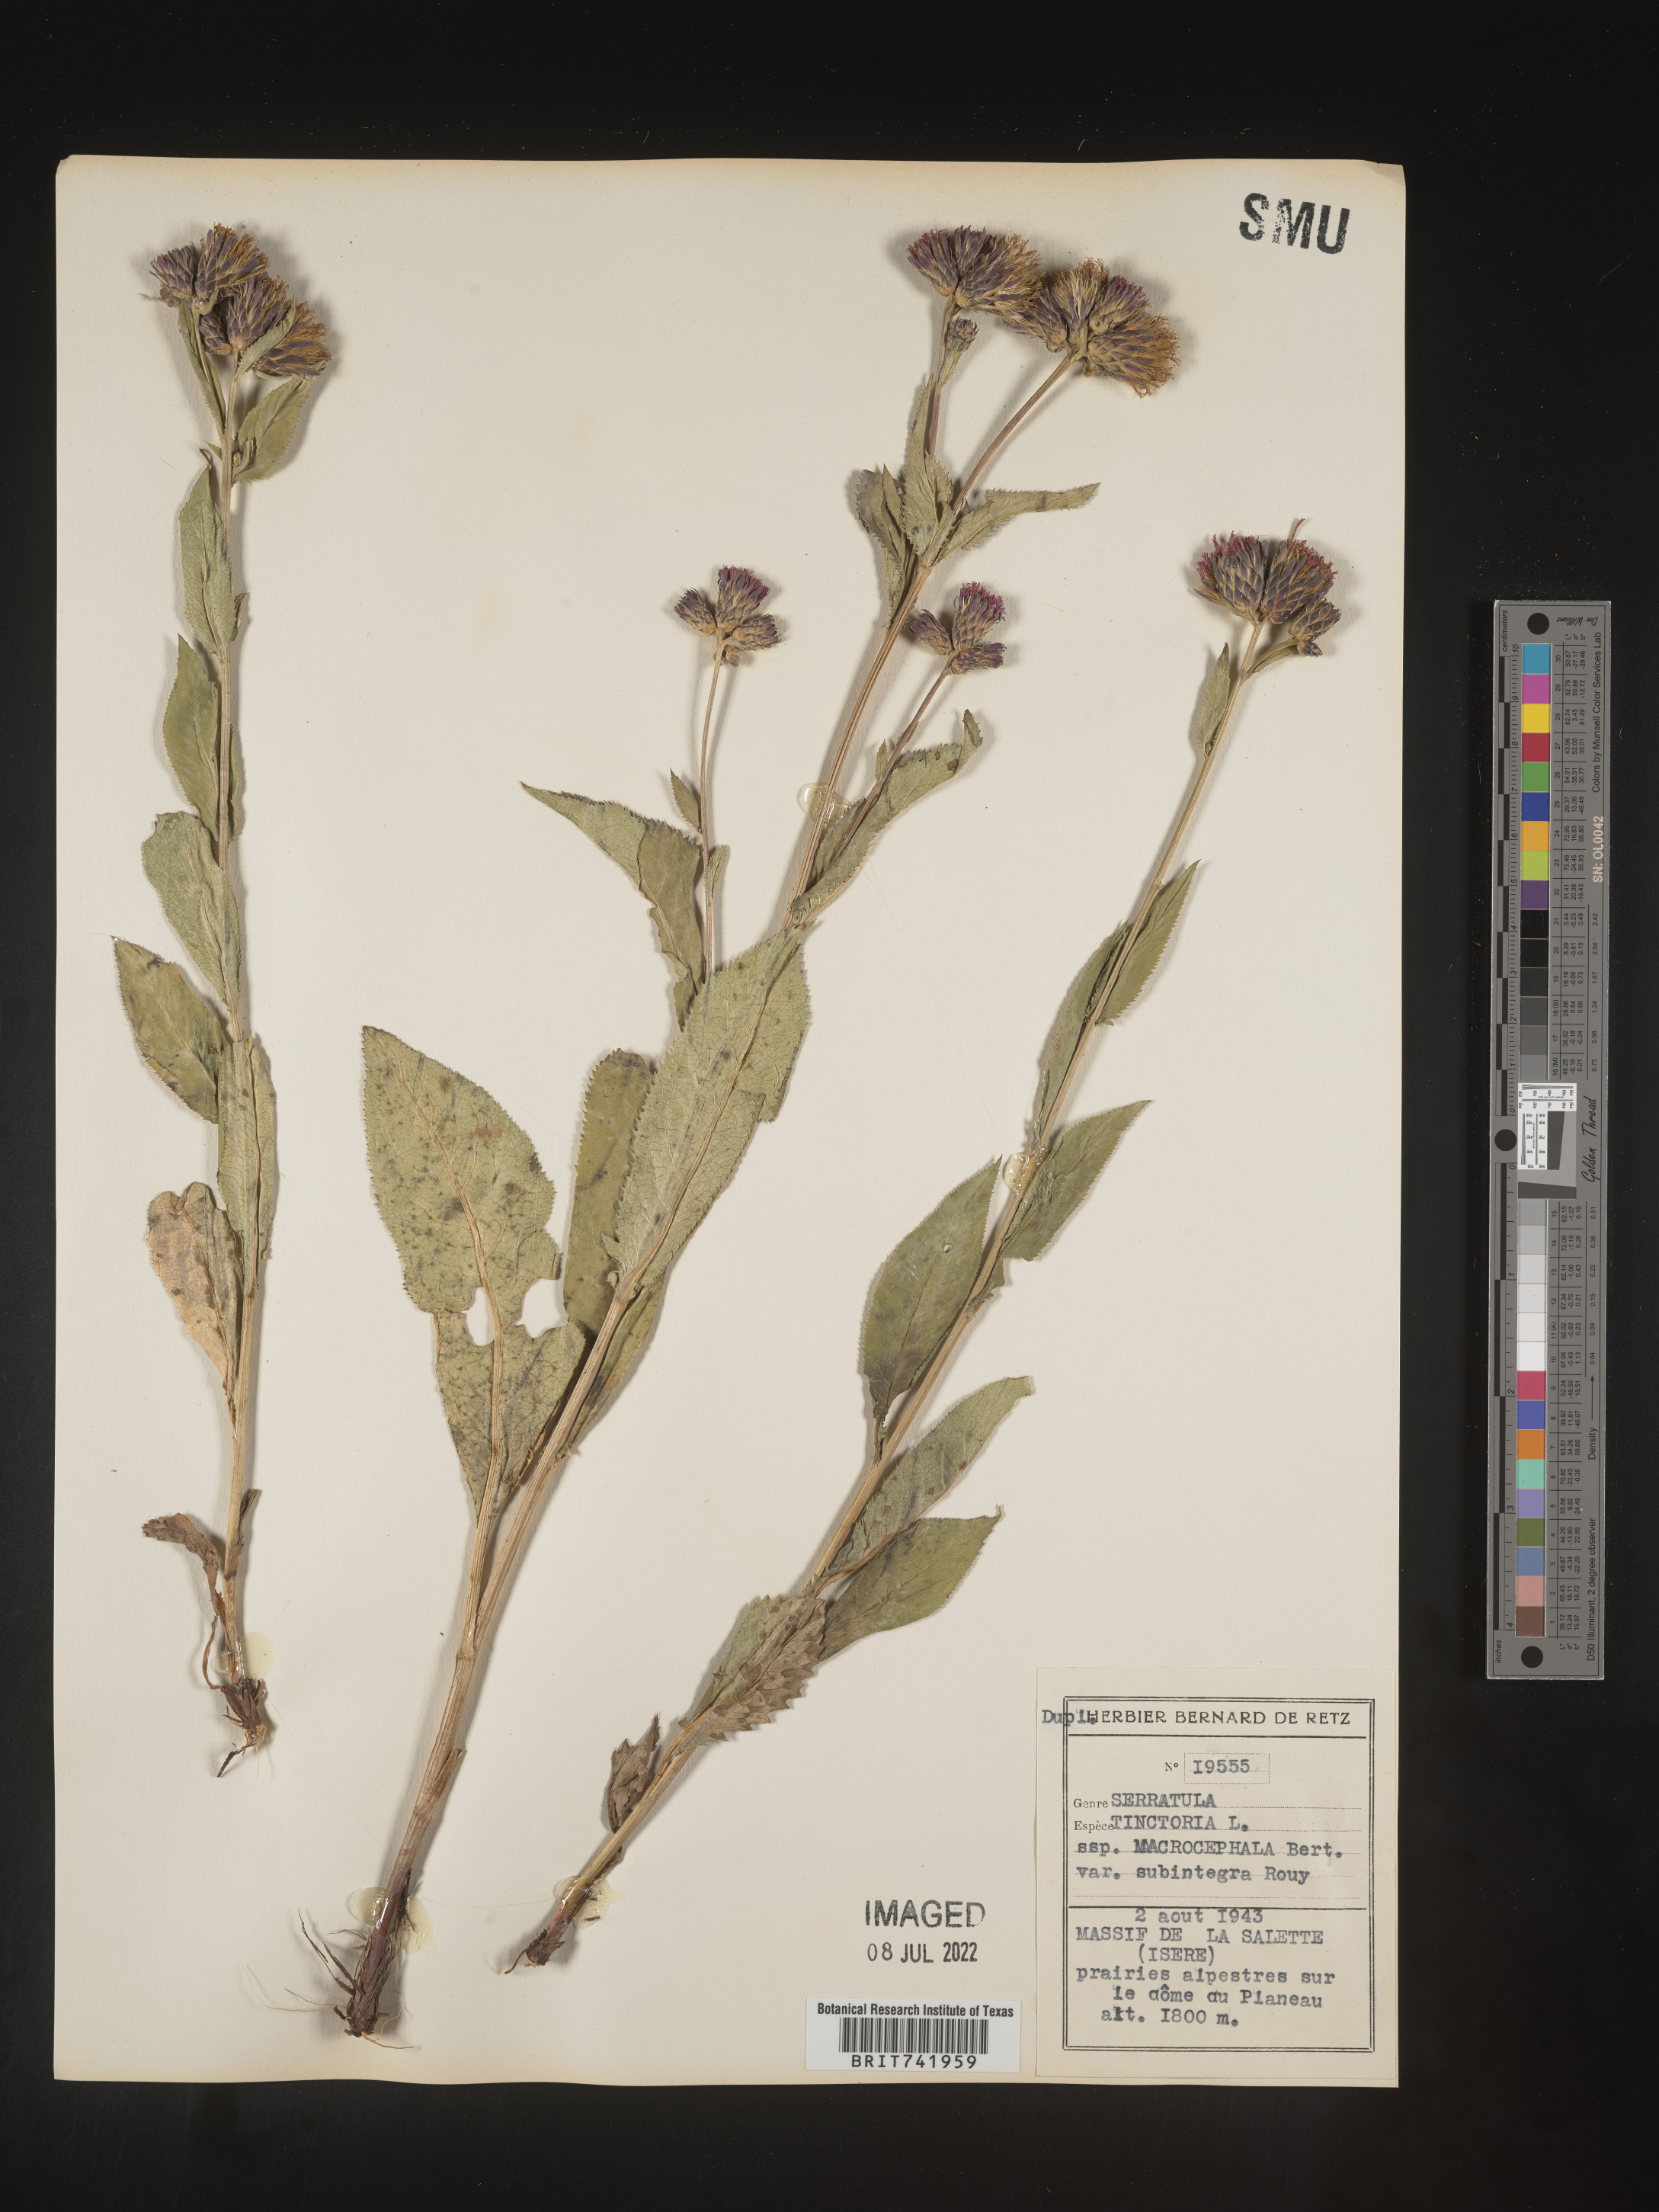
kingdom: Plantae
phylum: Tracheophyta
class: Magnoliopsida
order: Asterales
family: Asteraceae
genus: Serratula
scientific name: Serratula
